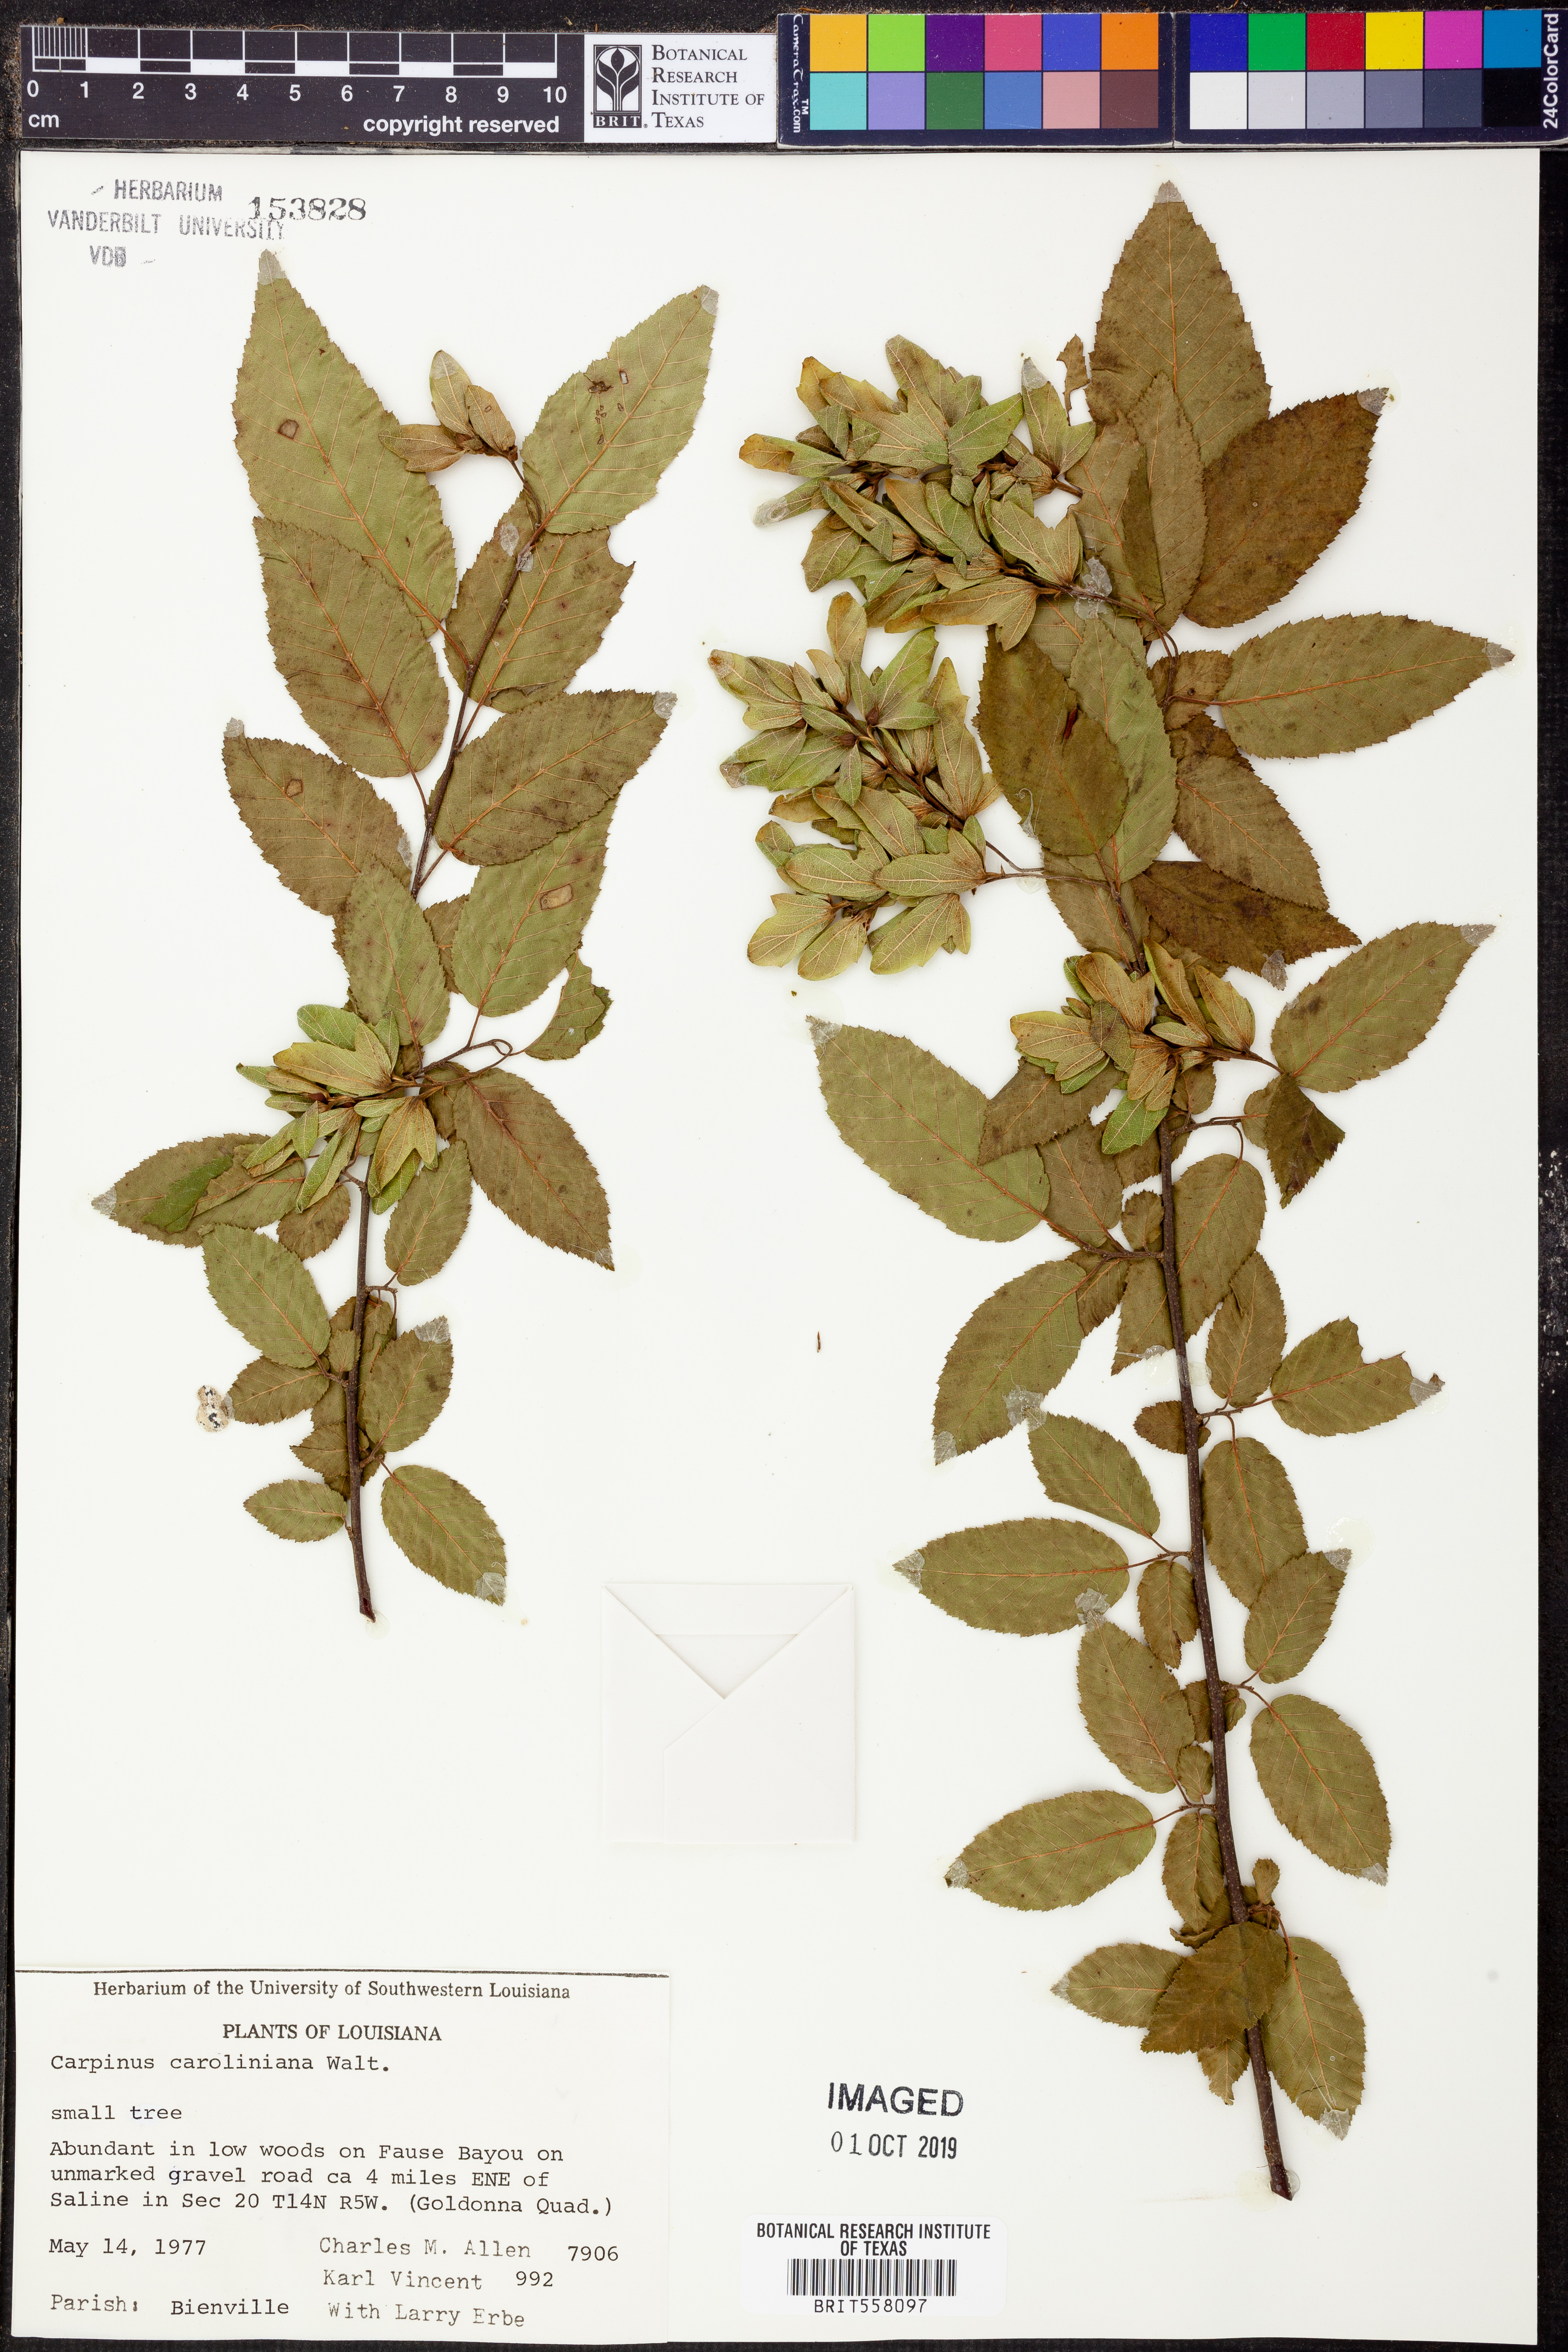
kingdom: Plantae
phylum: Tracheophyta
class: Magnoliopsida
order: Fagales
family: Betulaceae
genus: Carpinus
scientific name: Carpinus caroliniana
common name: American hornbeam
